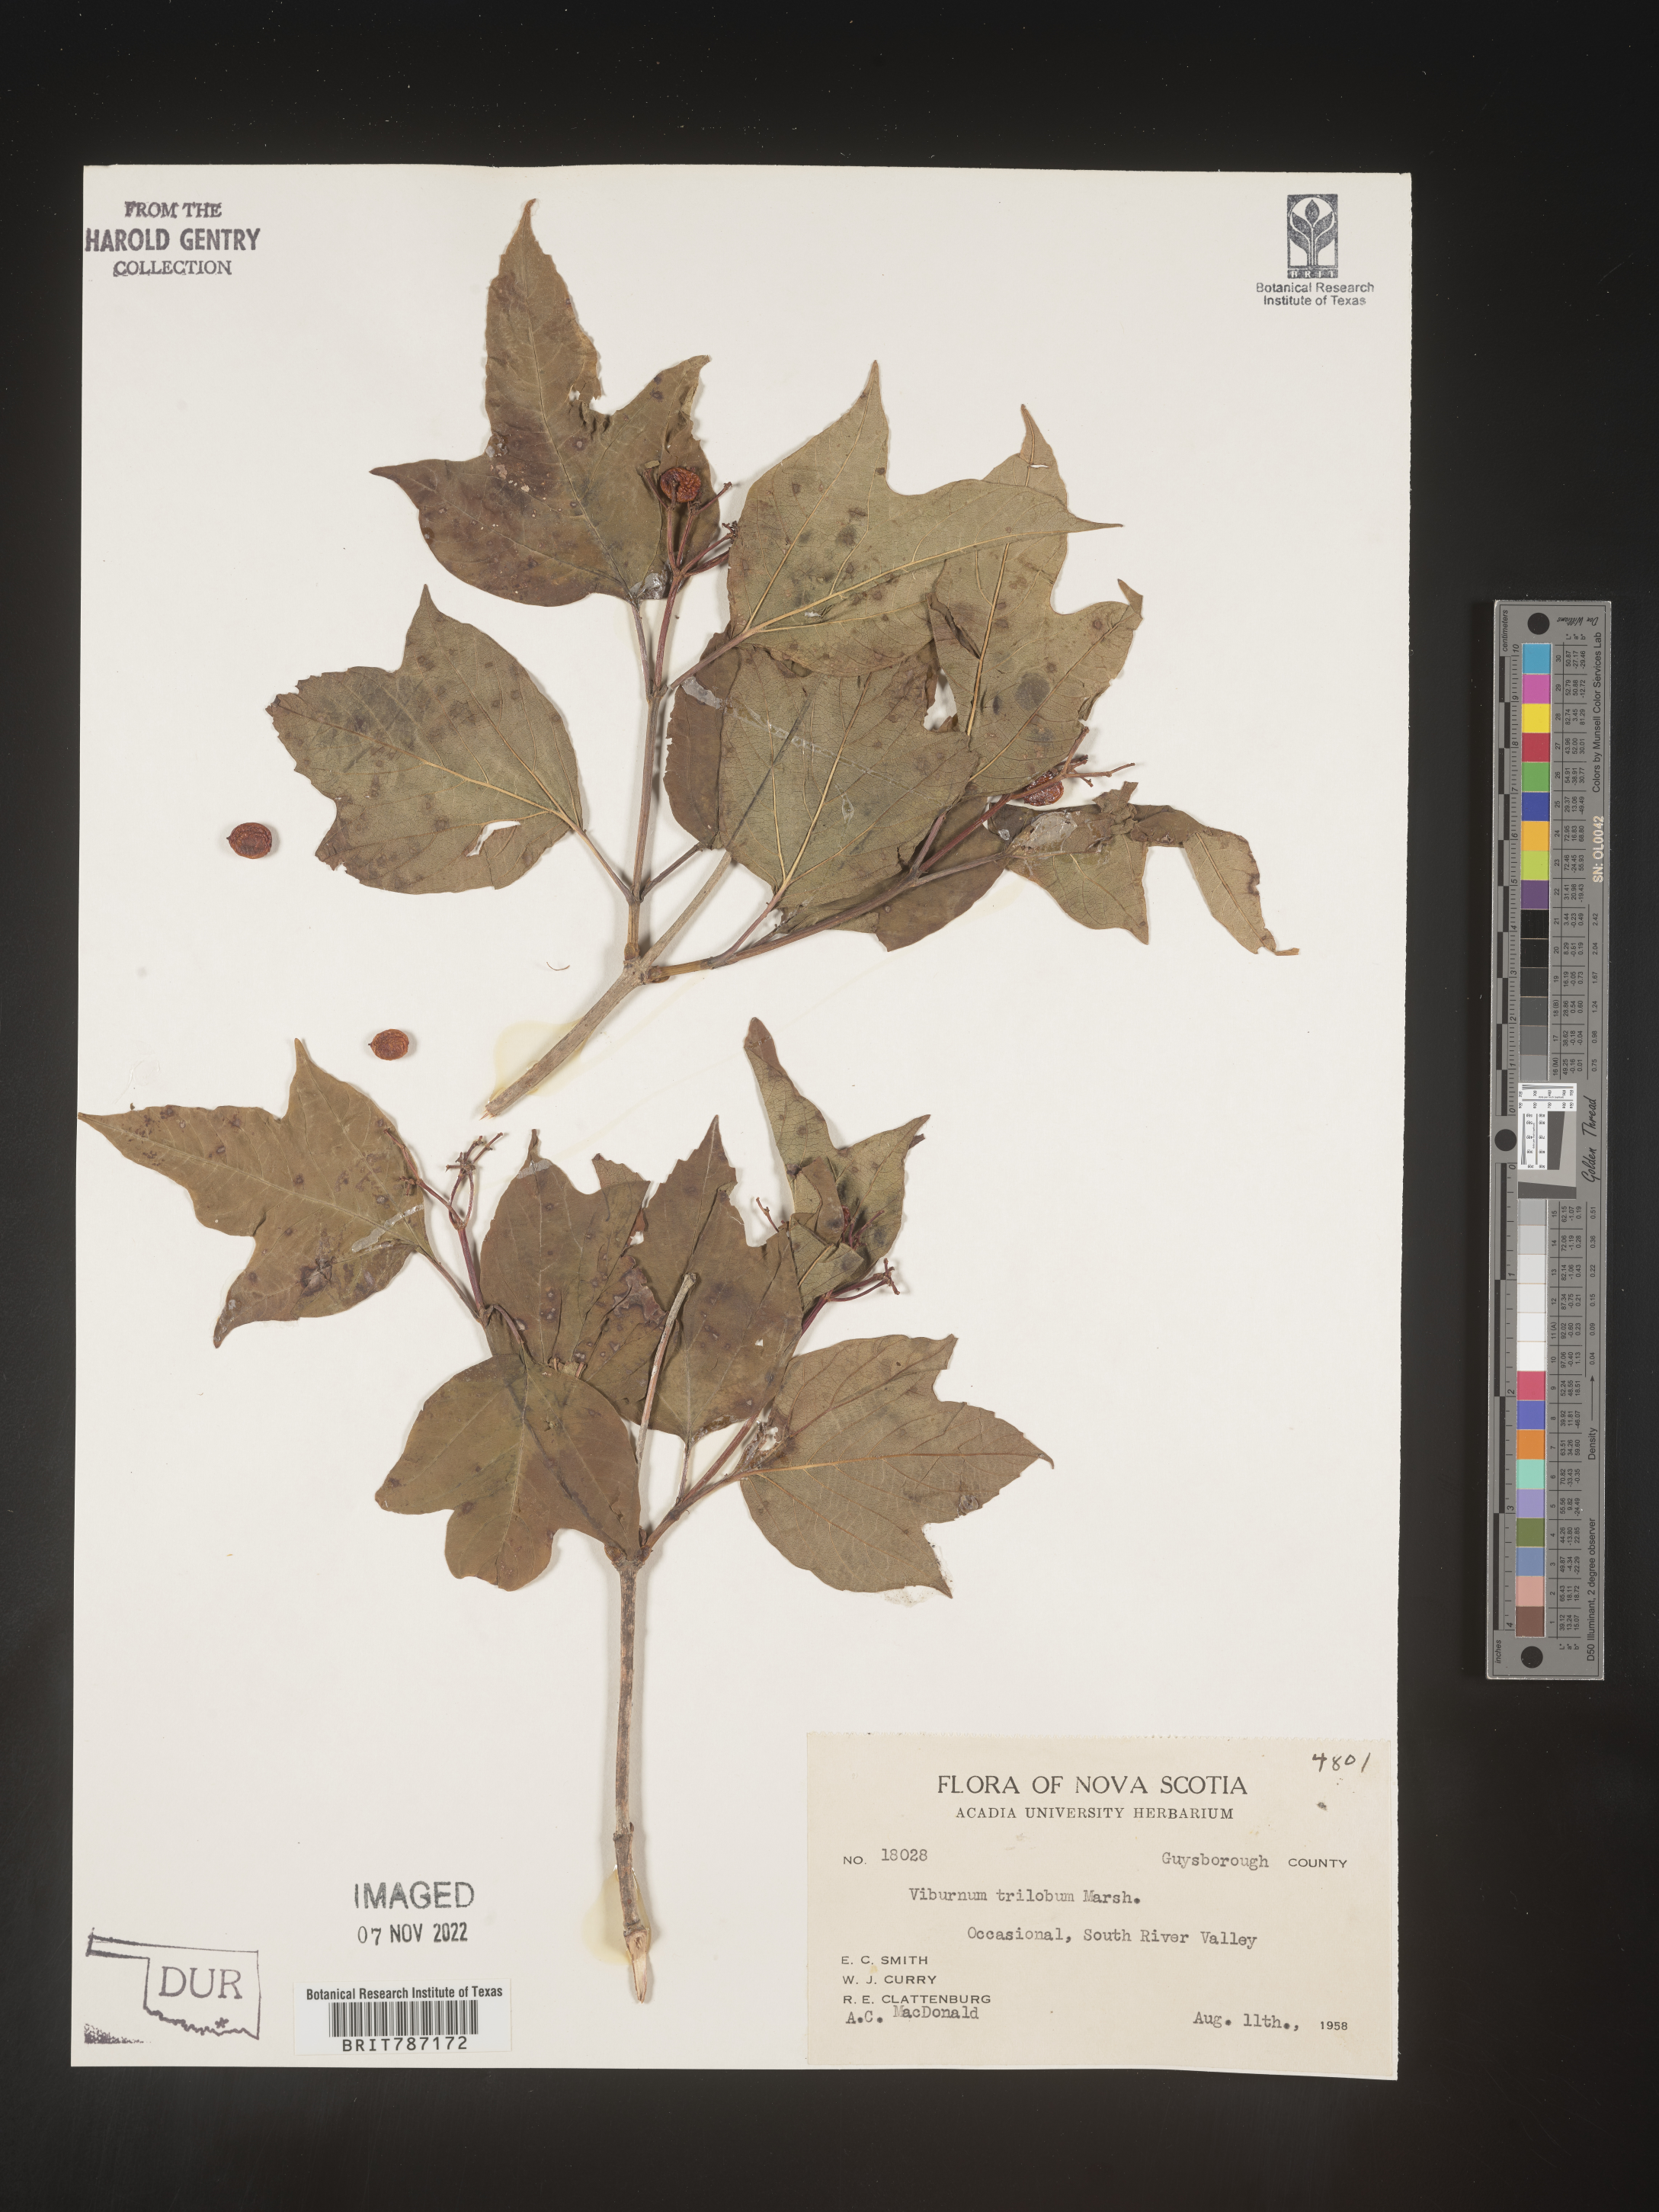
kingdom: Plantae
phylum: Tracheophyta
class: Magnoliopsida
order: Dipsacales
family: Viburnaceae
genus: Viburnum
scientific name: Viburnum trilobum
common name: American cranberrybush
